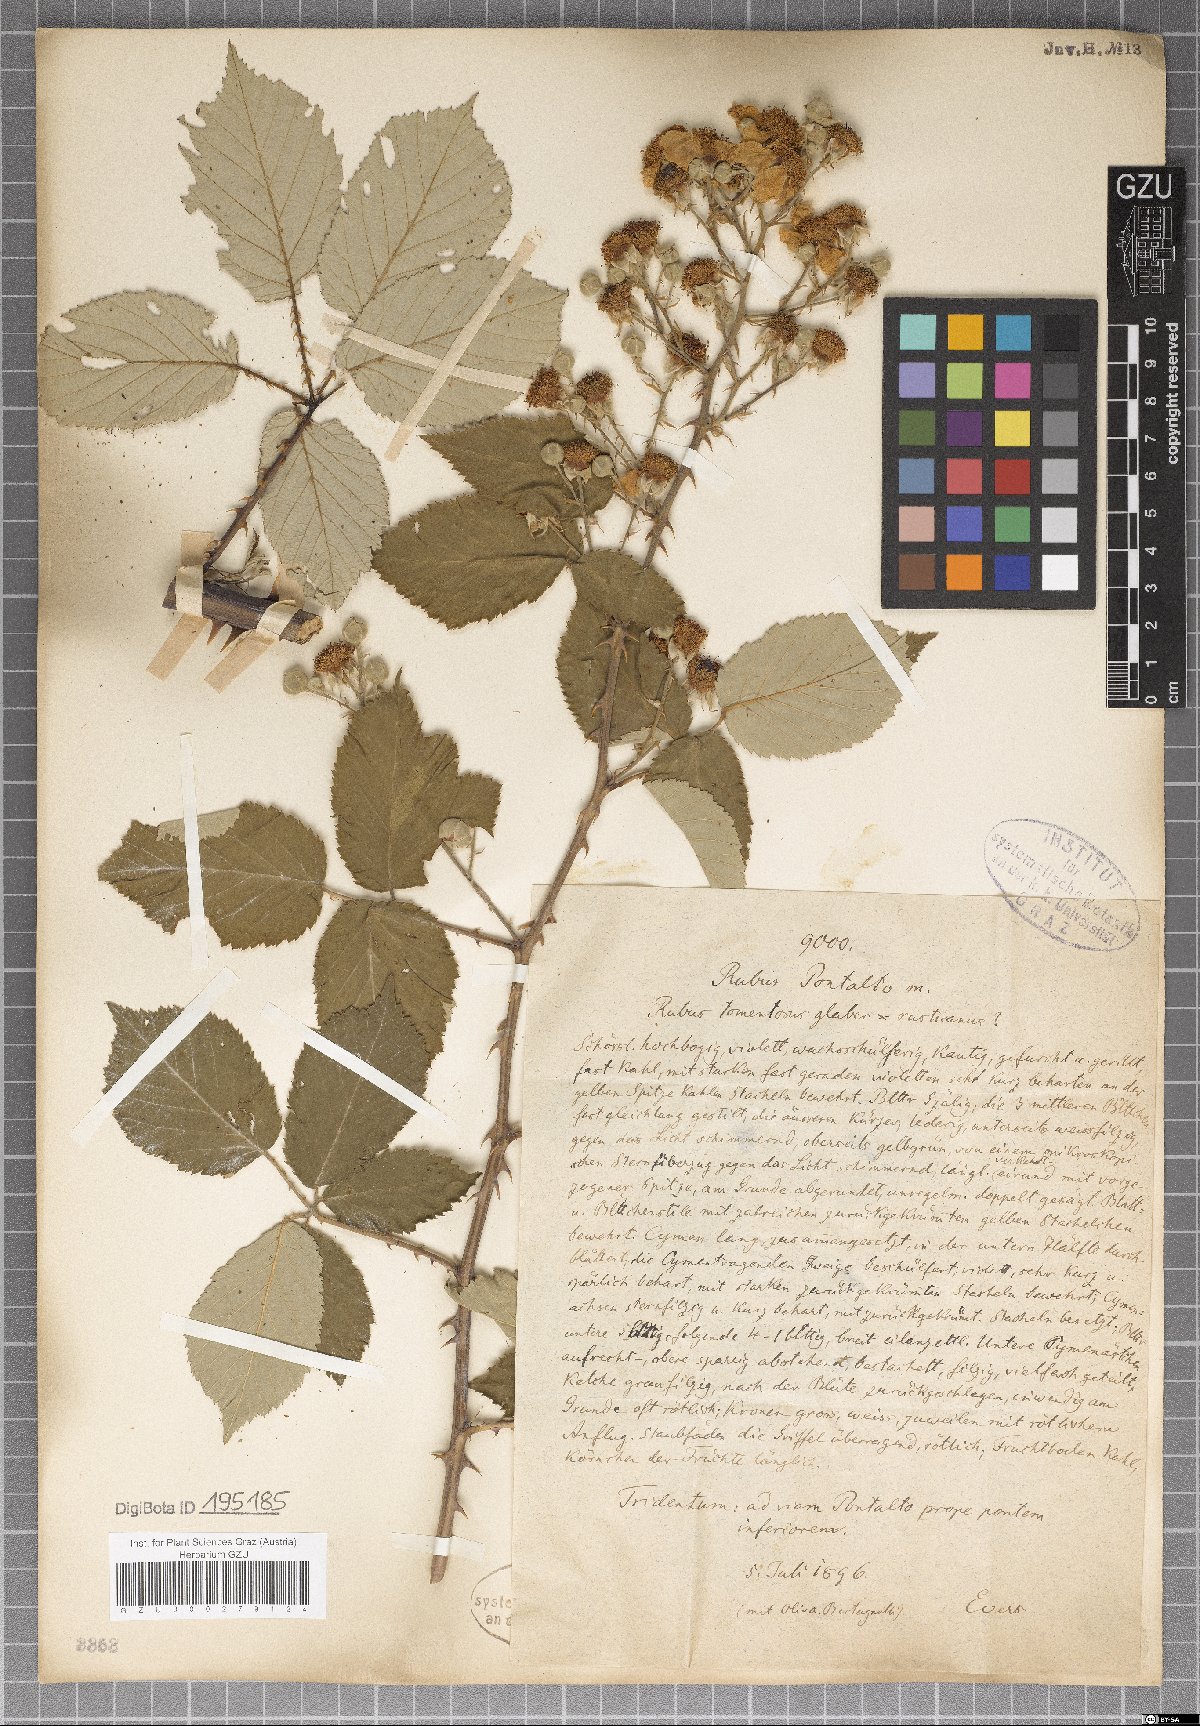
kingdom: Plantae
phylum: Tracheophyta
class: Magnoliopsida
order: Rosales
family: Rosaceae
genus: Rubus
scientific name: Rubus pontalto
